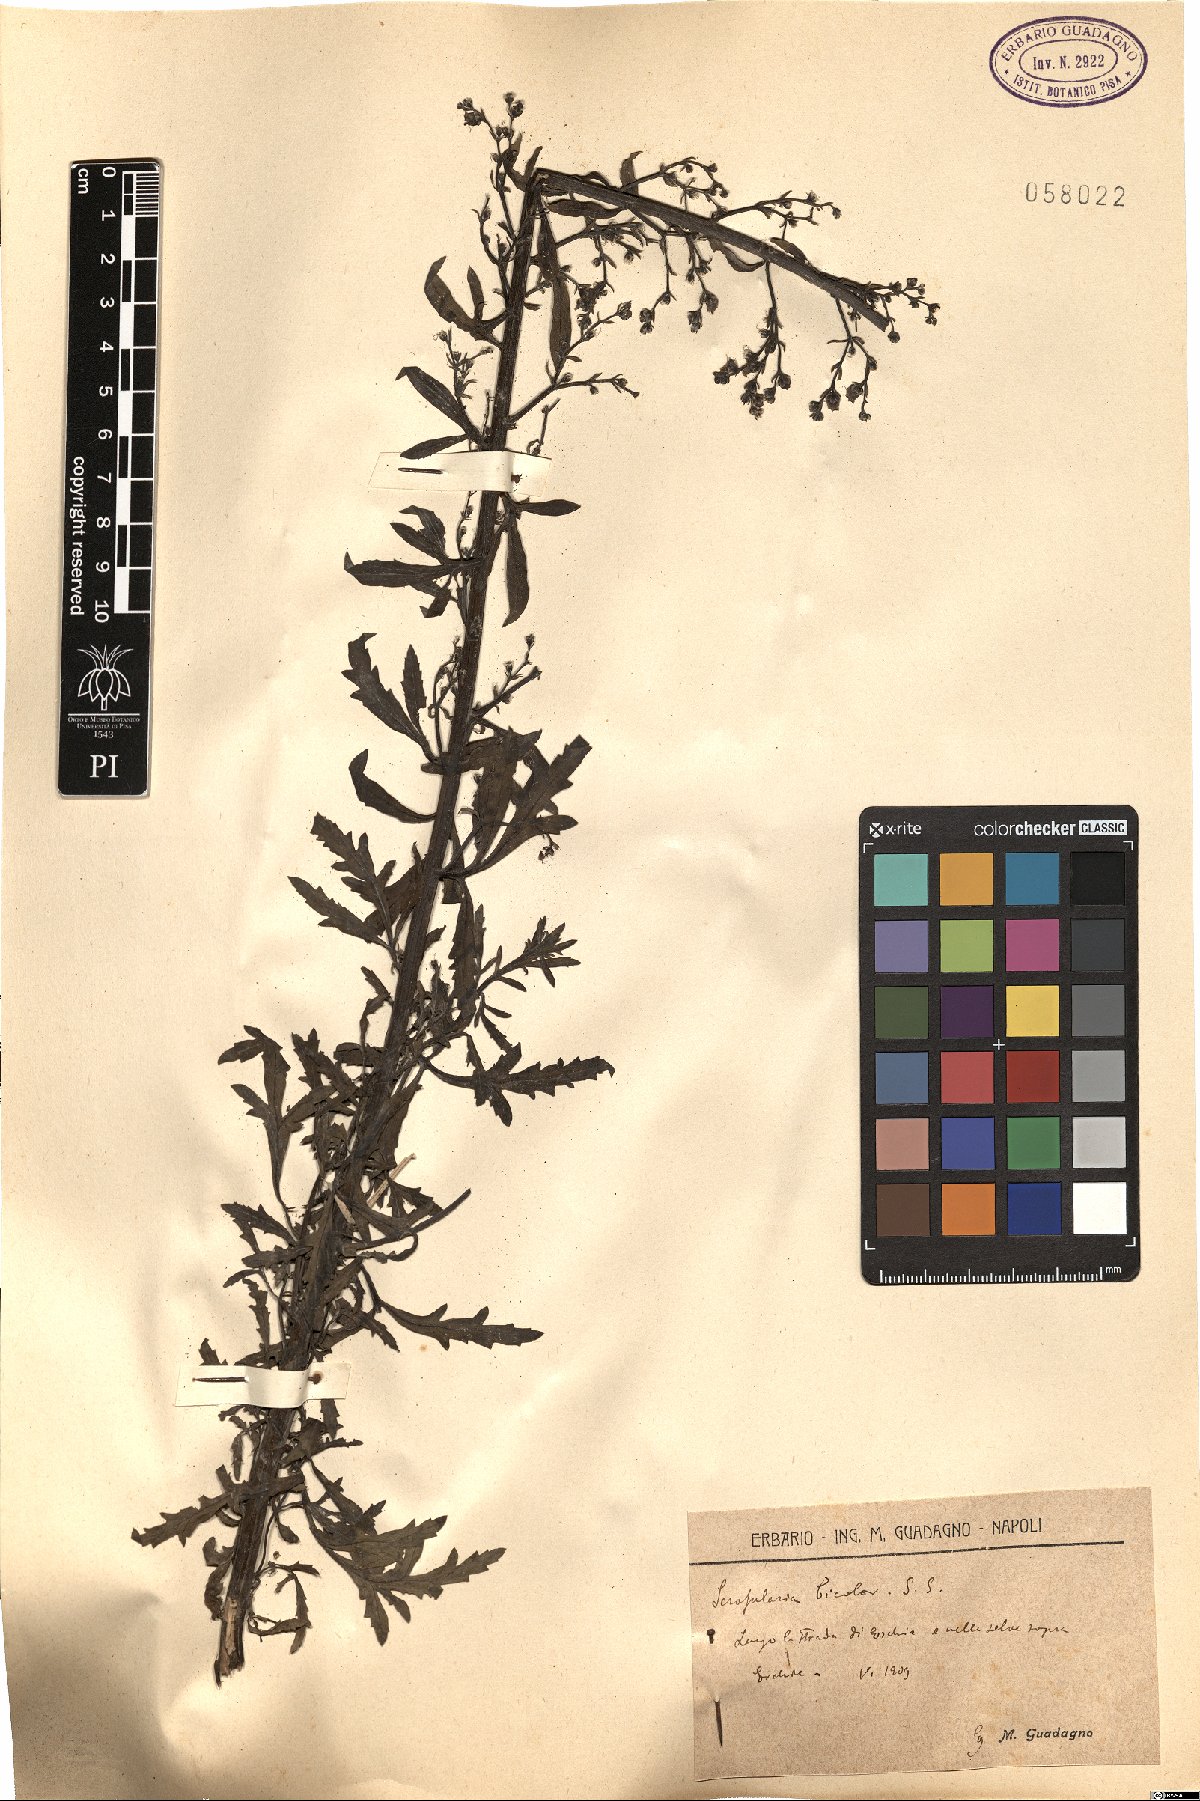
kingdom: Plantae
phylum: Tracheophyta
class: Magnoliopsida
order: Lamiales
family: Scrophulariaceae
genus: Scrophularia
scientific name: Scrophularia canina
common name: French figwort
